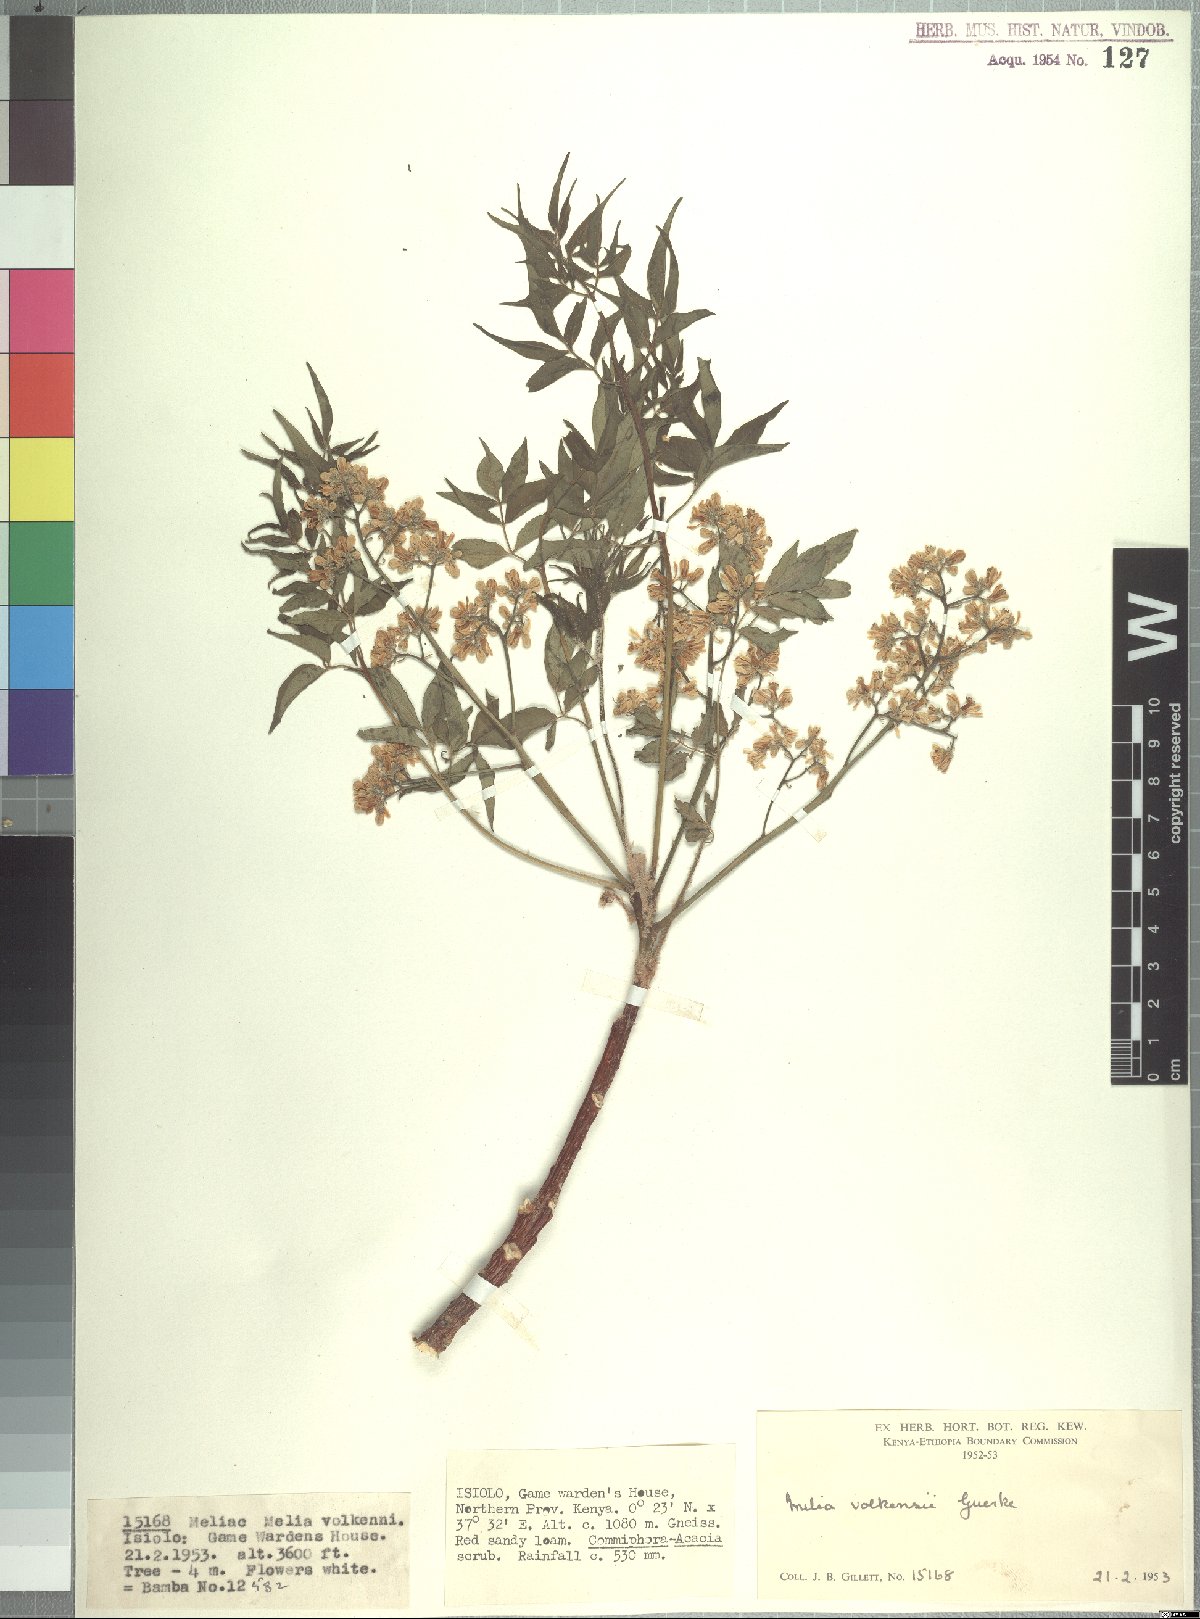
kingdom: Plantae
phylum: Tracheophyta
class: Magnoliopsida
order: Sapindales
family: Meliaceae
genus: Melia
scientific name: Melia volkensii
